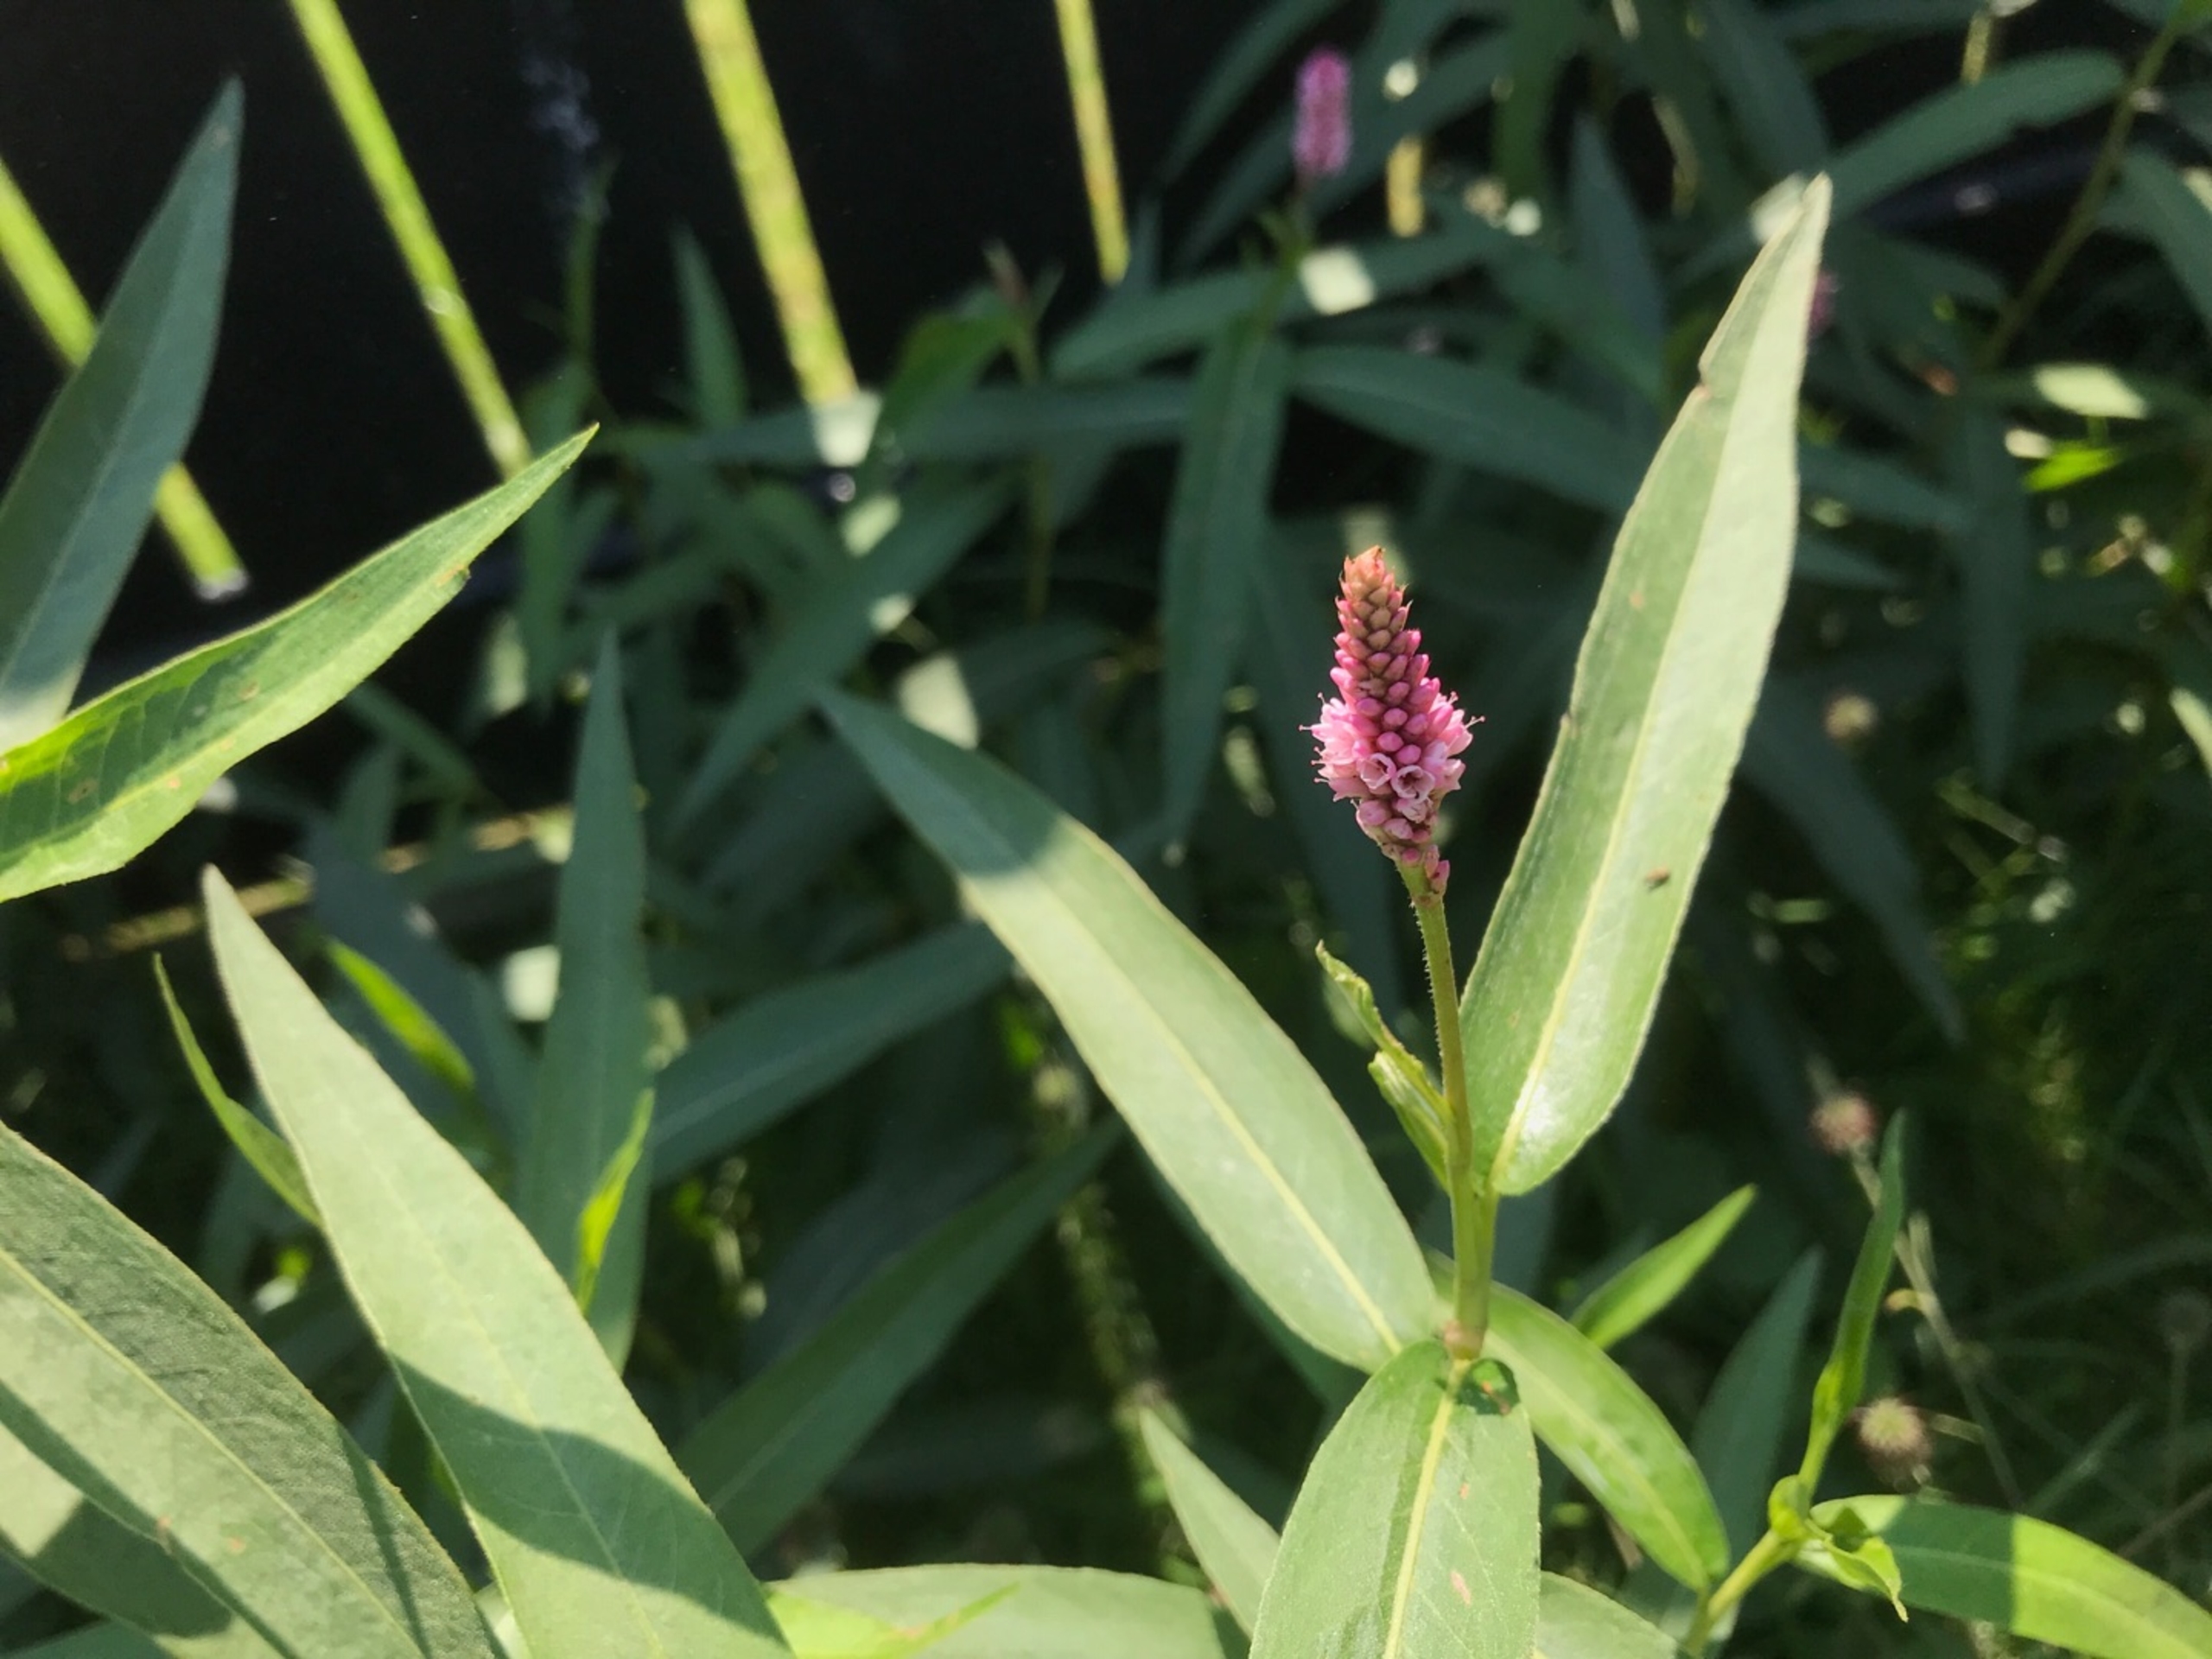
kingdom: Plantae
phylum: Tracheophyta
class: Magnoliopsida
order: Caryophyllales
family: Polygonaceae
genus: Persicaria
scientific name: Persicaria amphibia
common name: Vand-pileurt
